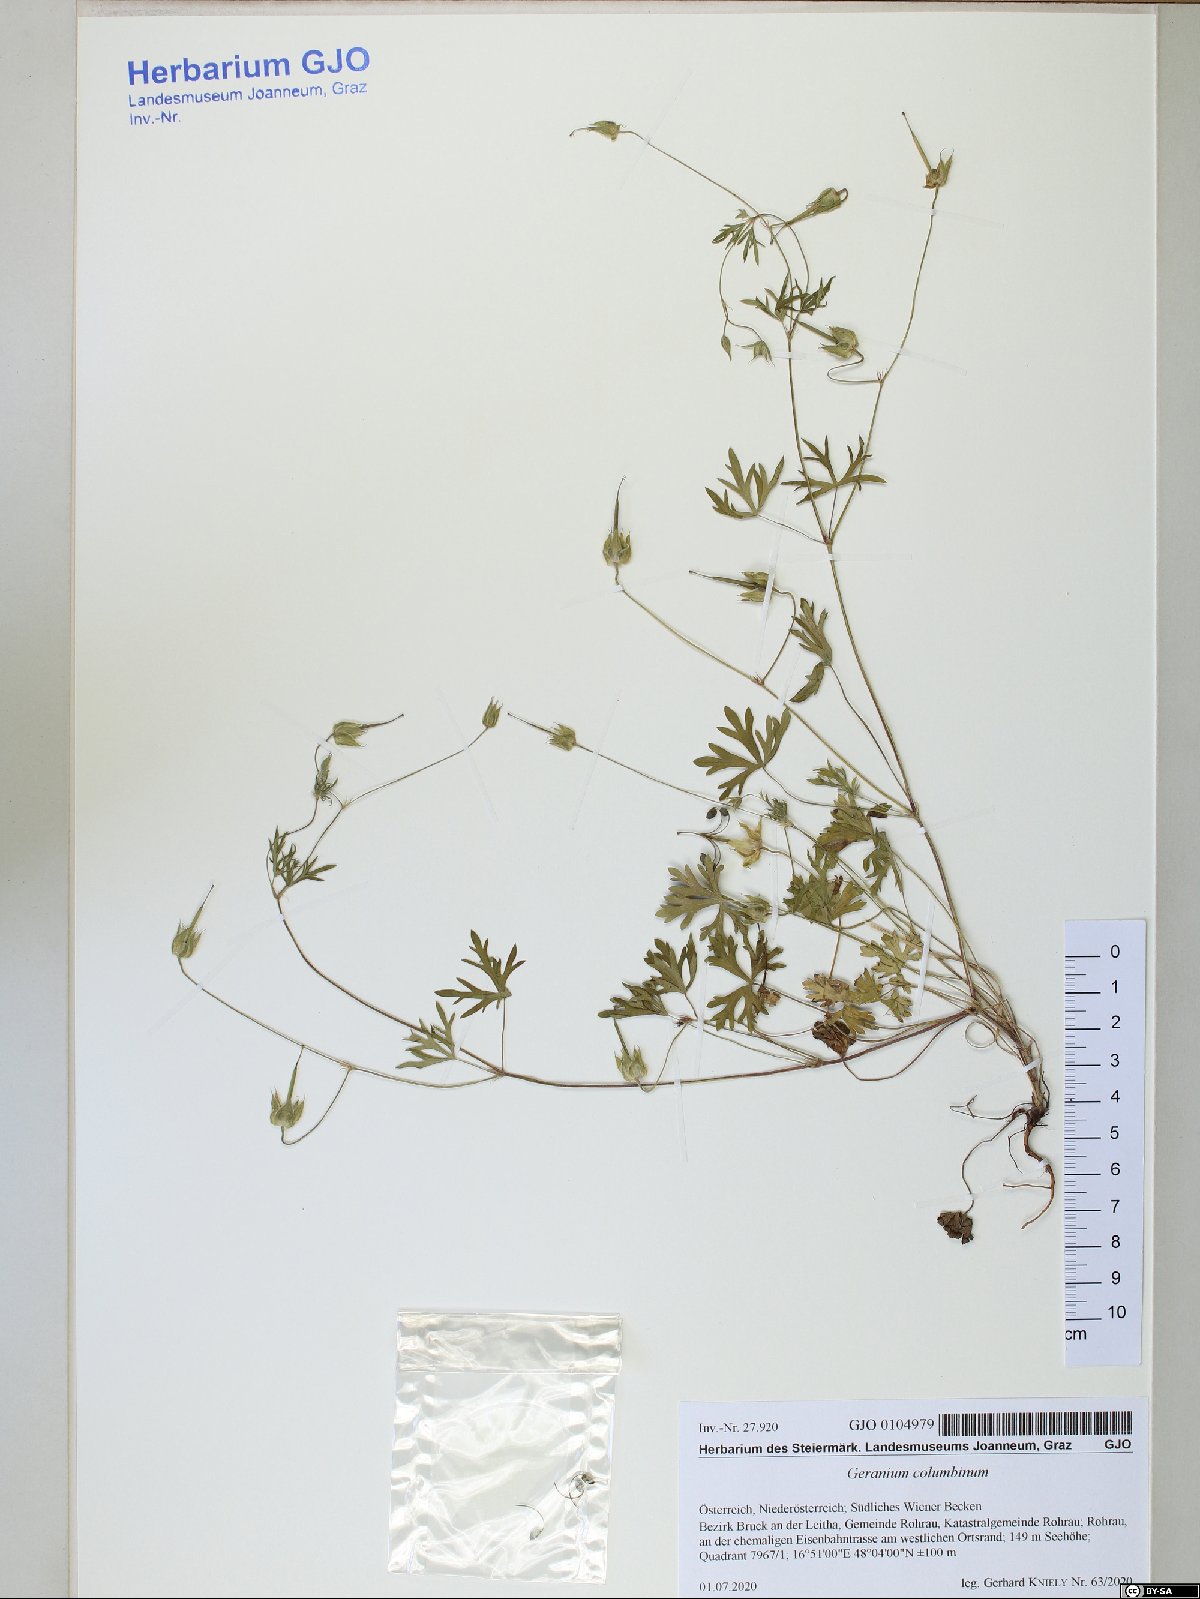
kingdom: Plantae
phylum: Tracheophyta
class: Magnoliopsida
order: Geraniales
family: Geraniaceae
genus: Geranium
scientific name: Geranium columbinum
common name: Long-stalked crane's-bill
